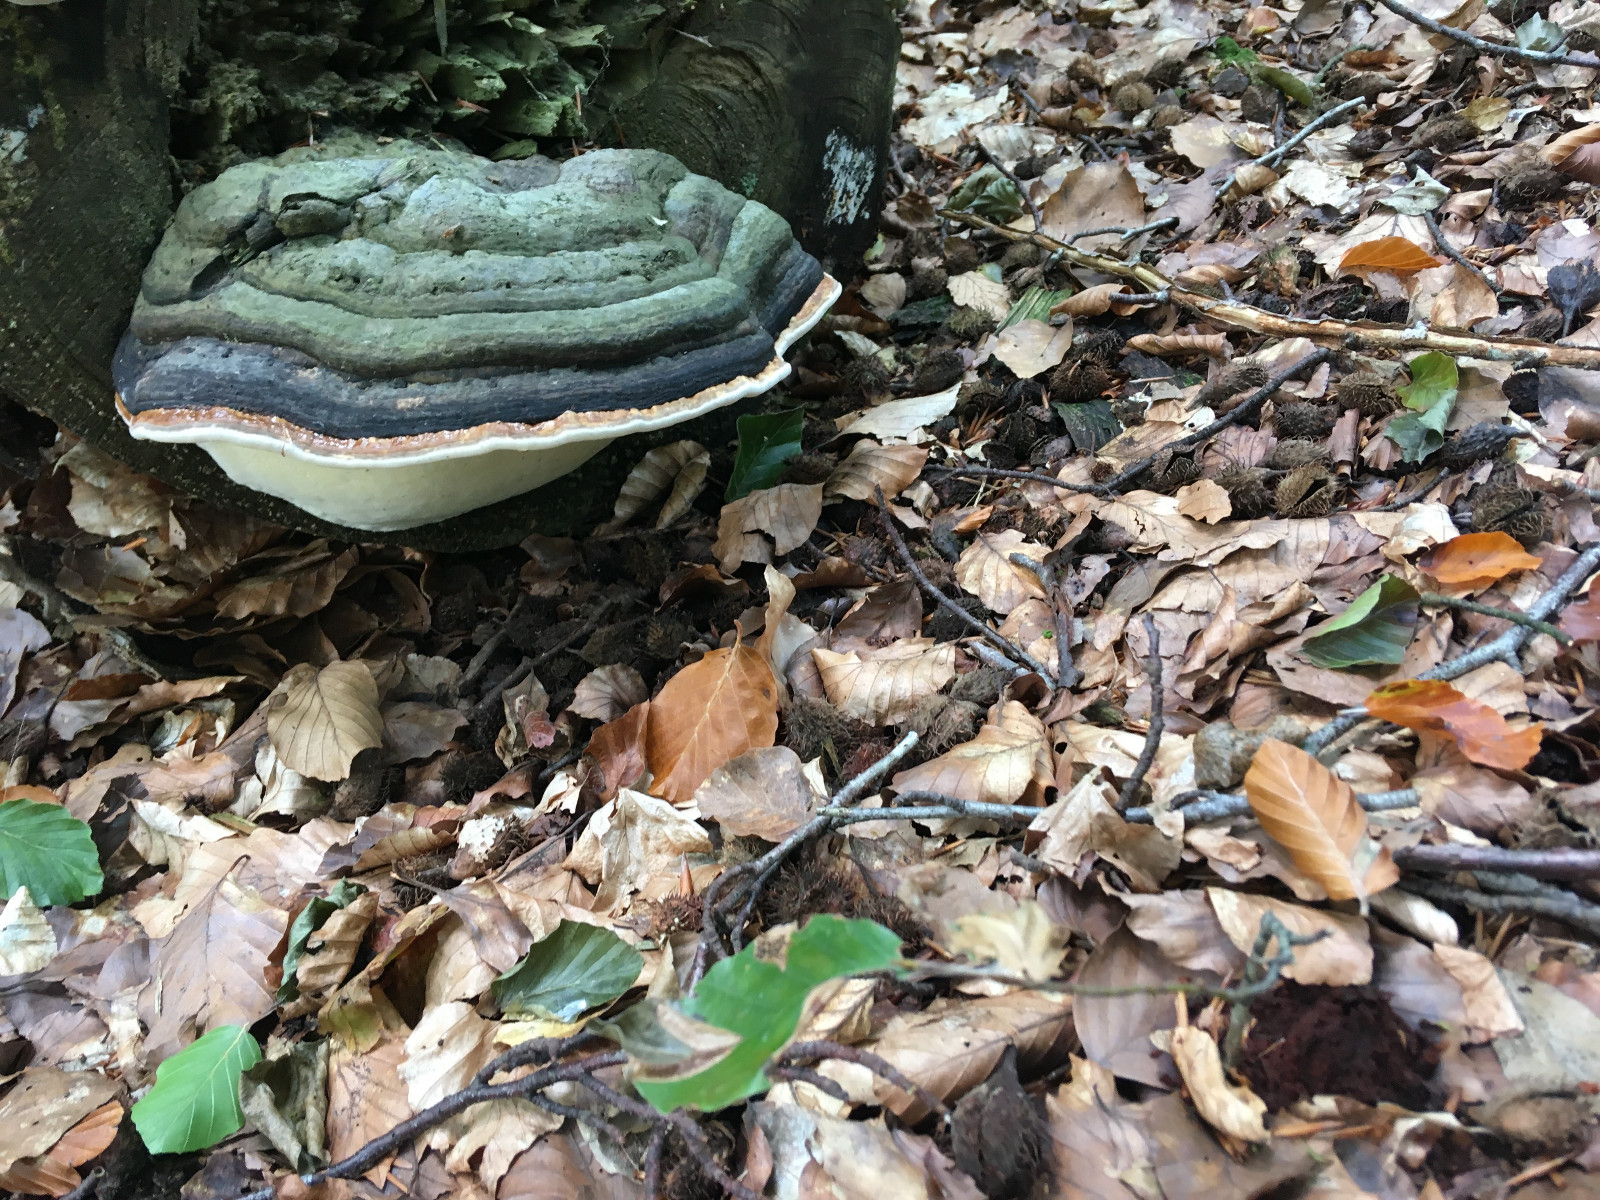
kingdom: Fungi
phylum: Basidiomycota
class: Agaricomycetes
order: Polyporales
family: Polyporaceae
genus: Fomes
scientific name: Fomes fomentarius
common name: tøndersvamp
